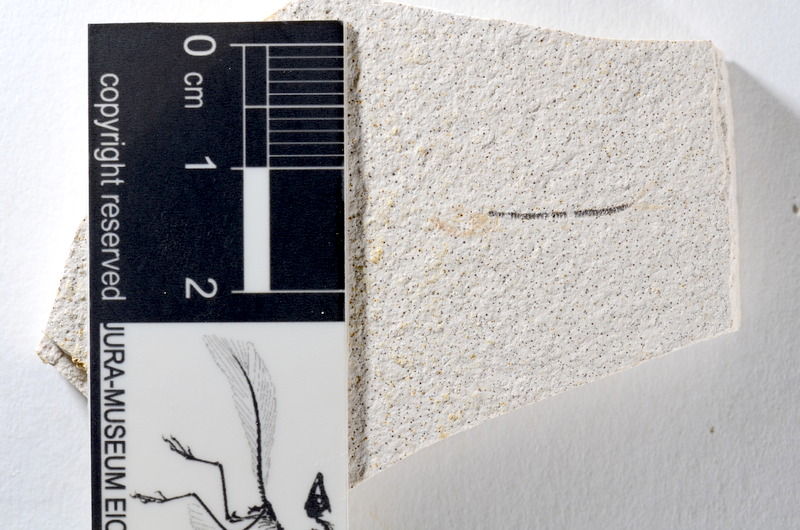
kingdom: Animalia
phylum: Chordata
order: Salmoniformes
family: Orthogonikleithridae
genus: Orthogonikleithrus
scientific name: Orthogonikleithrus hoelli
